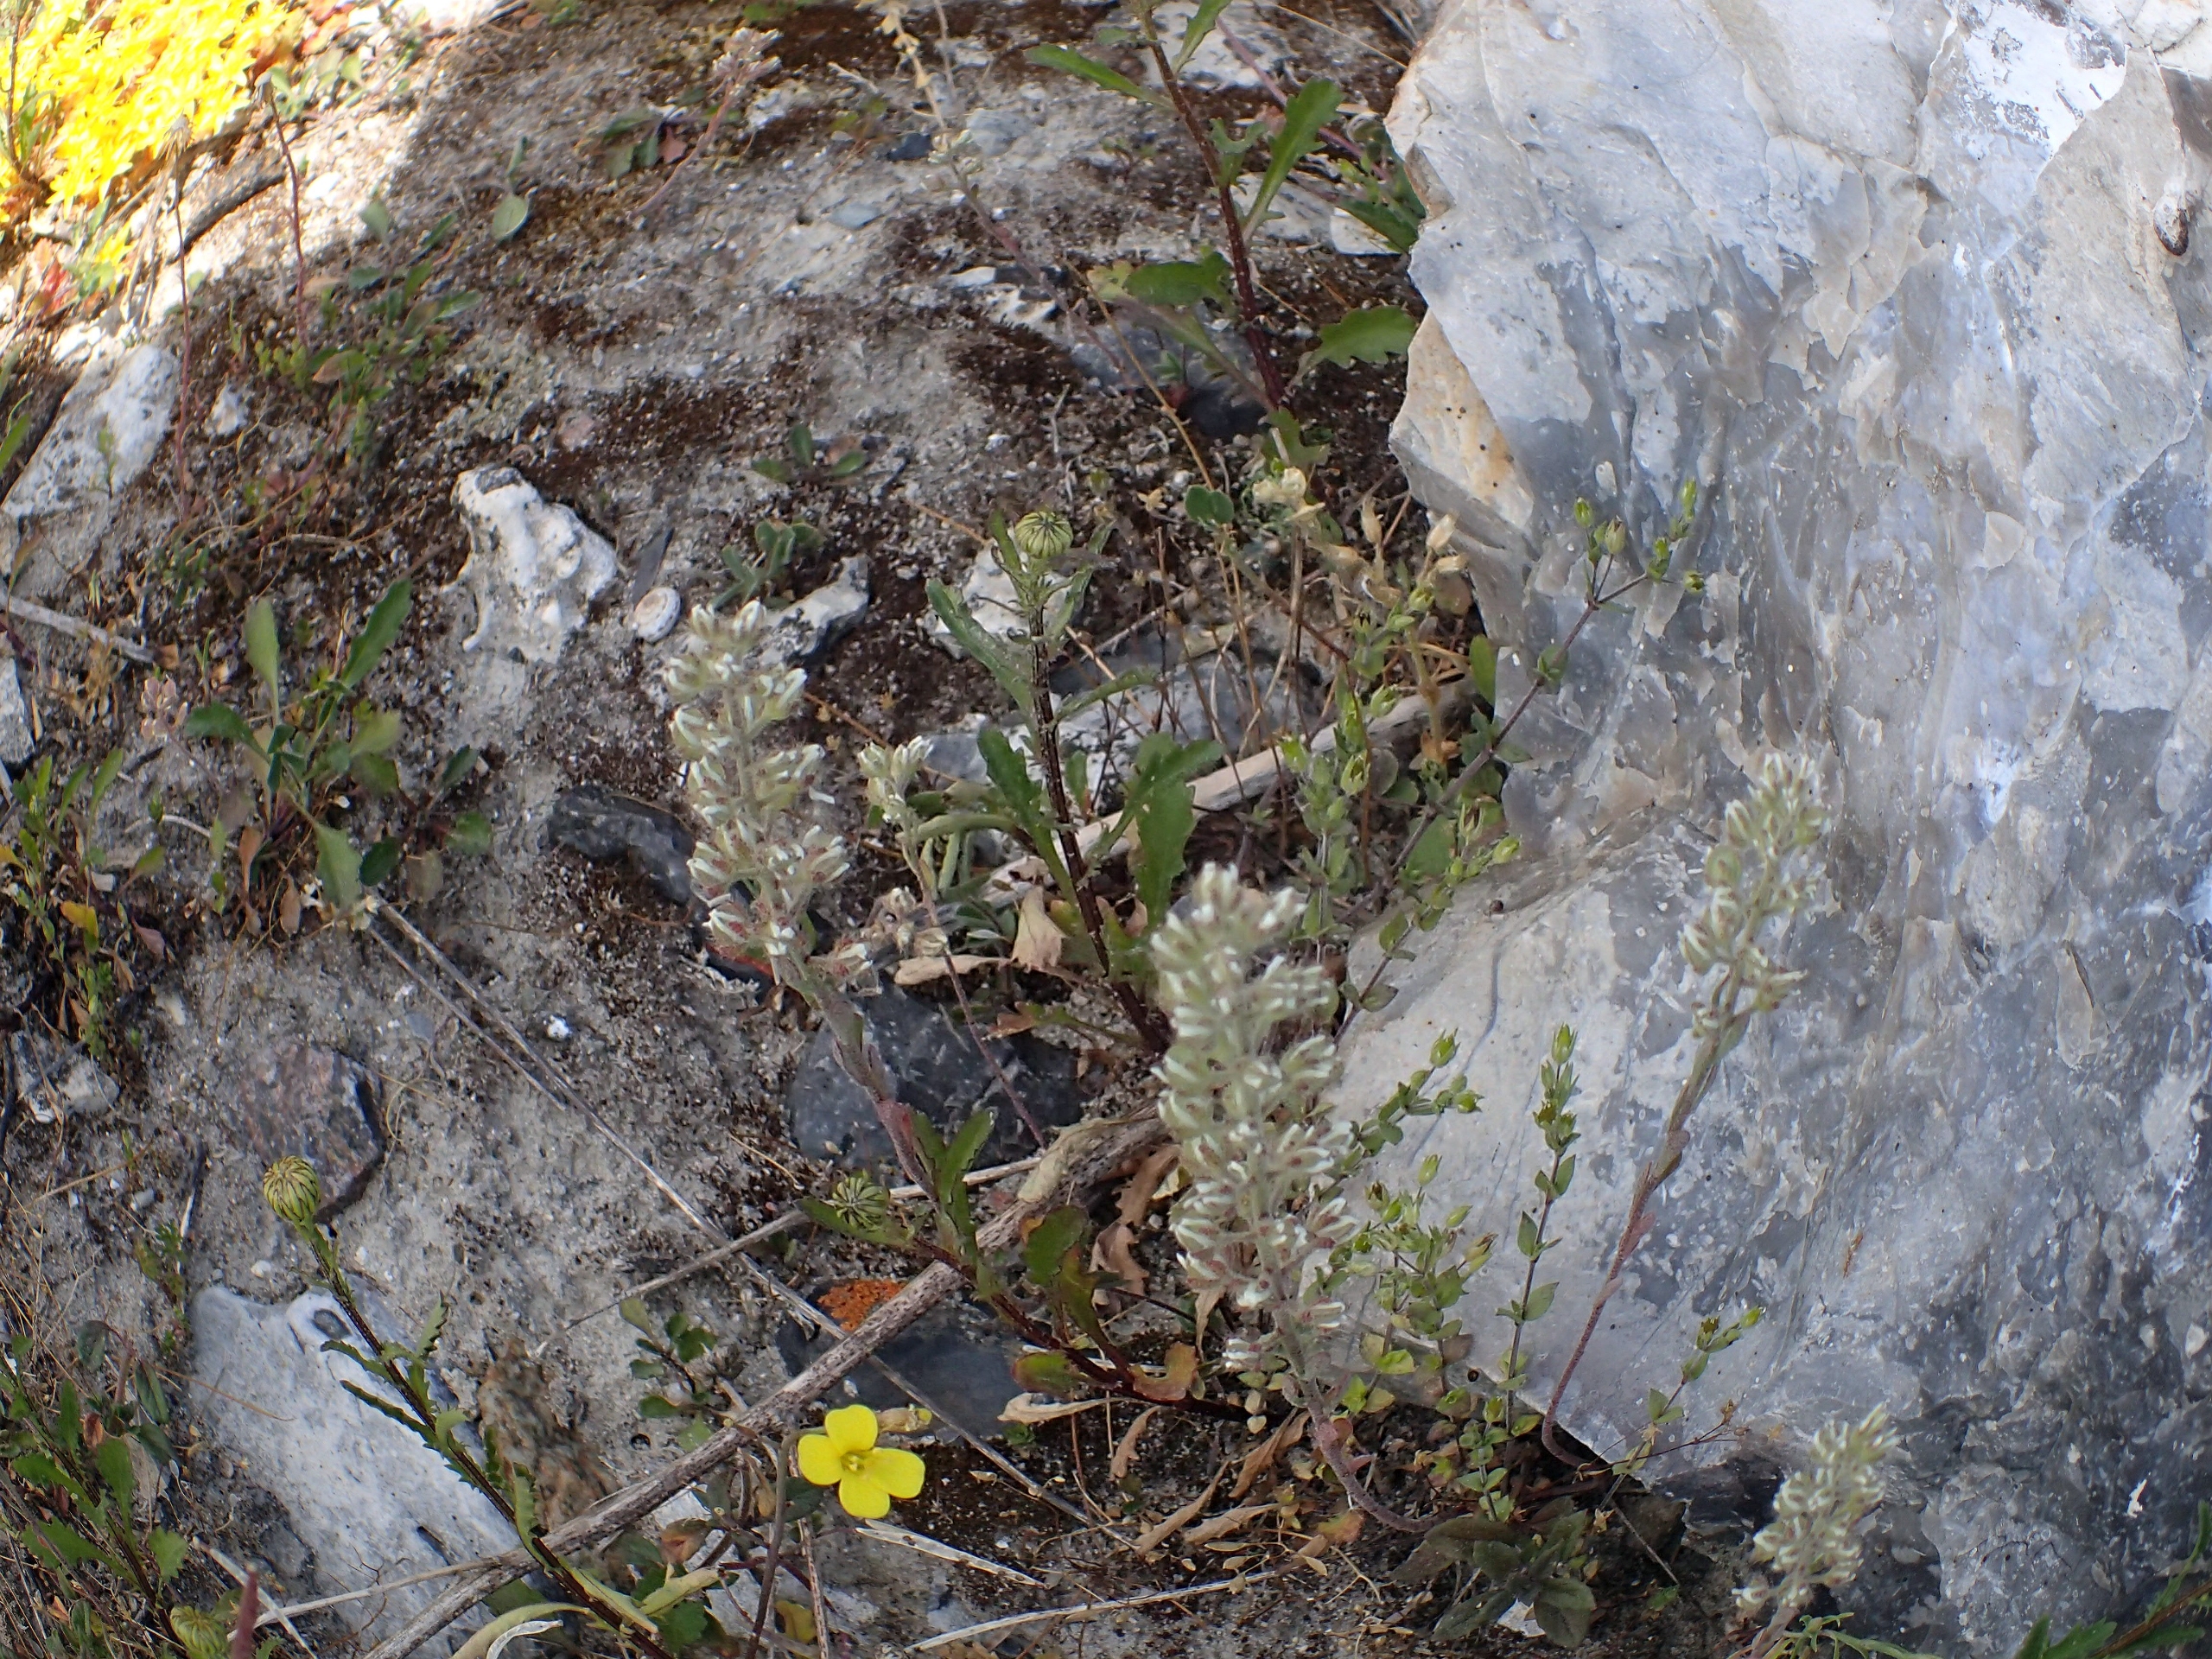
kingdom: Plantae
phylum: Tracheophyta
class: Magnoliopsida
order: Brassicales
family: Brassicaceae
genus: Alyssum
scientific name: Alyssum alyssoides
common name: Grådodder
